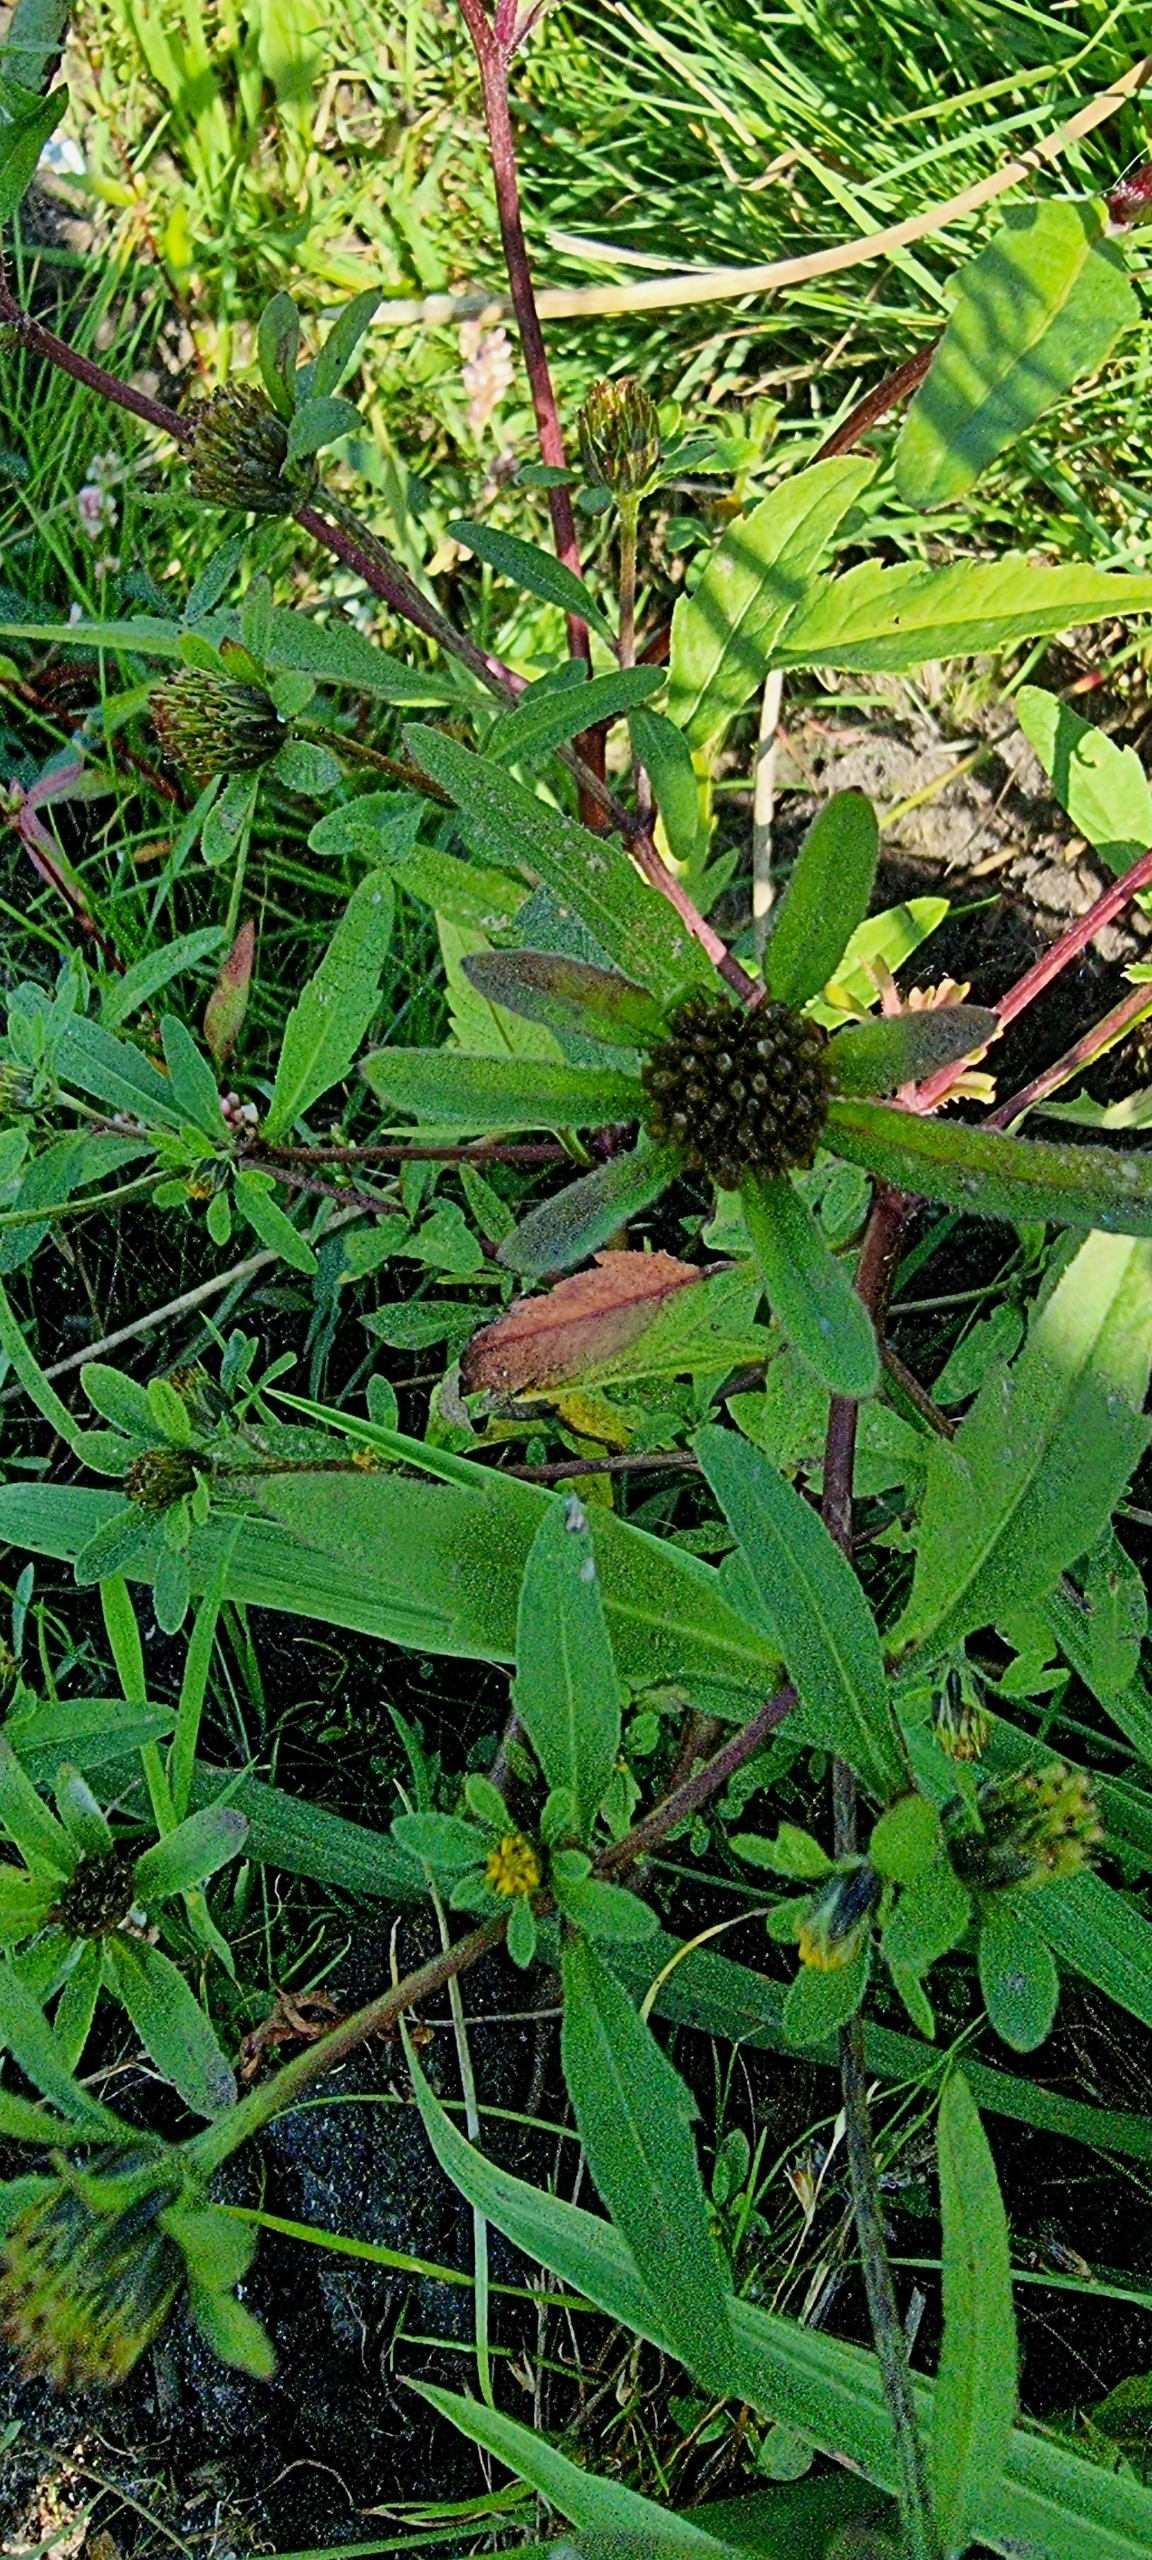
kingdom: Plantae
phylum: Tracheophyta
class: Magnoliopsida
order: Asterales
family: Asteraceae
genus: Bidens
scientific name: Bidens tripartita
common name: Fliget brøndsel
